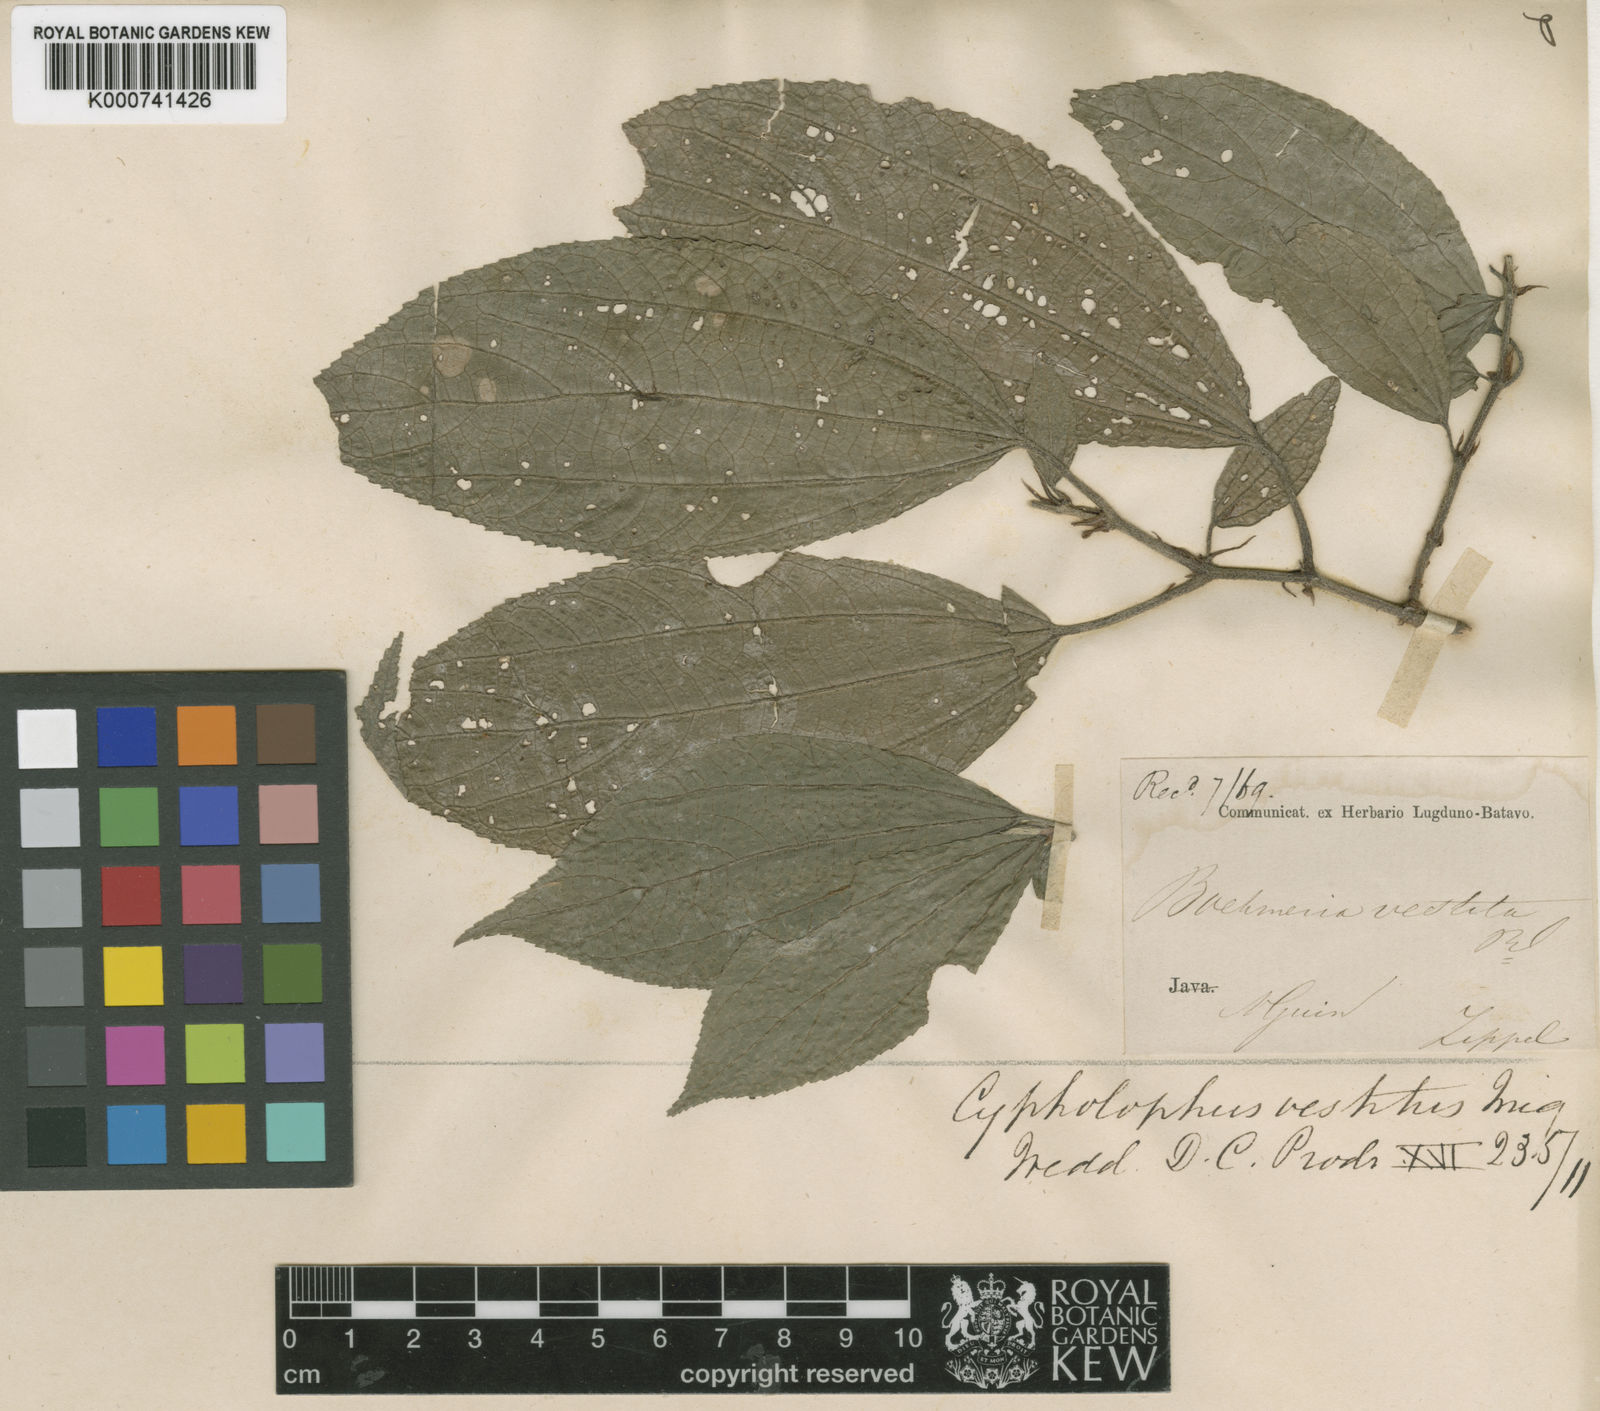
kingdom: Plantae
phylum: Tracheophyta
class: Magnoliopsida
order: Rosales
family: Urticaceae
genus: Cypholophus
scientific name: Cypholophus vestitus
